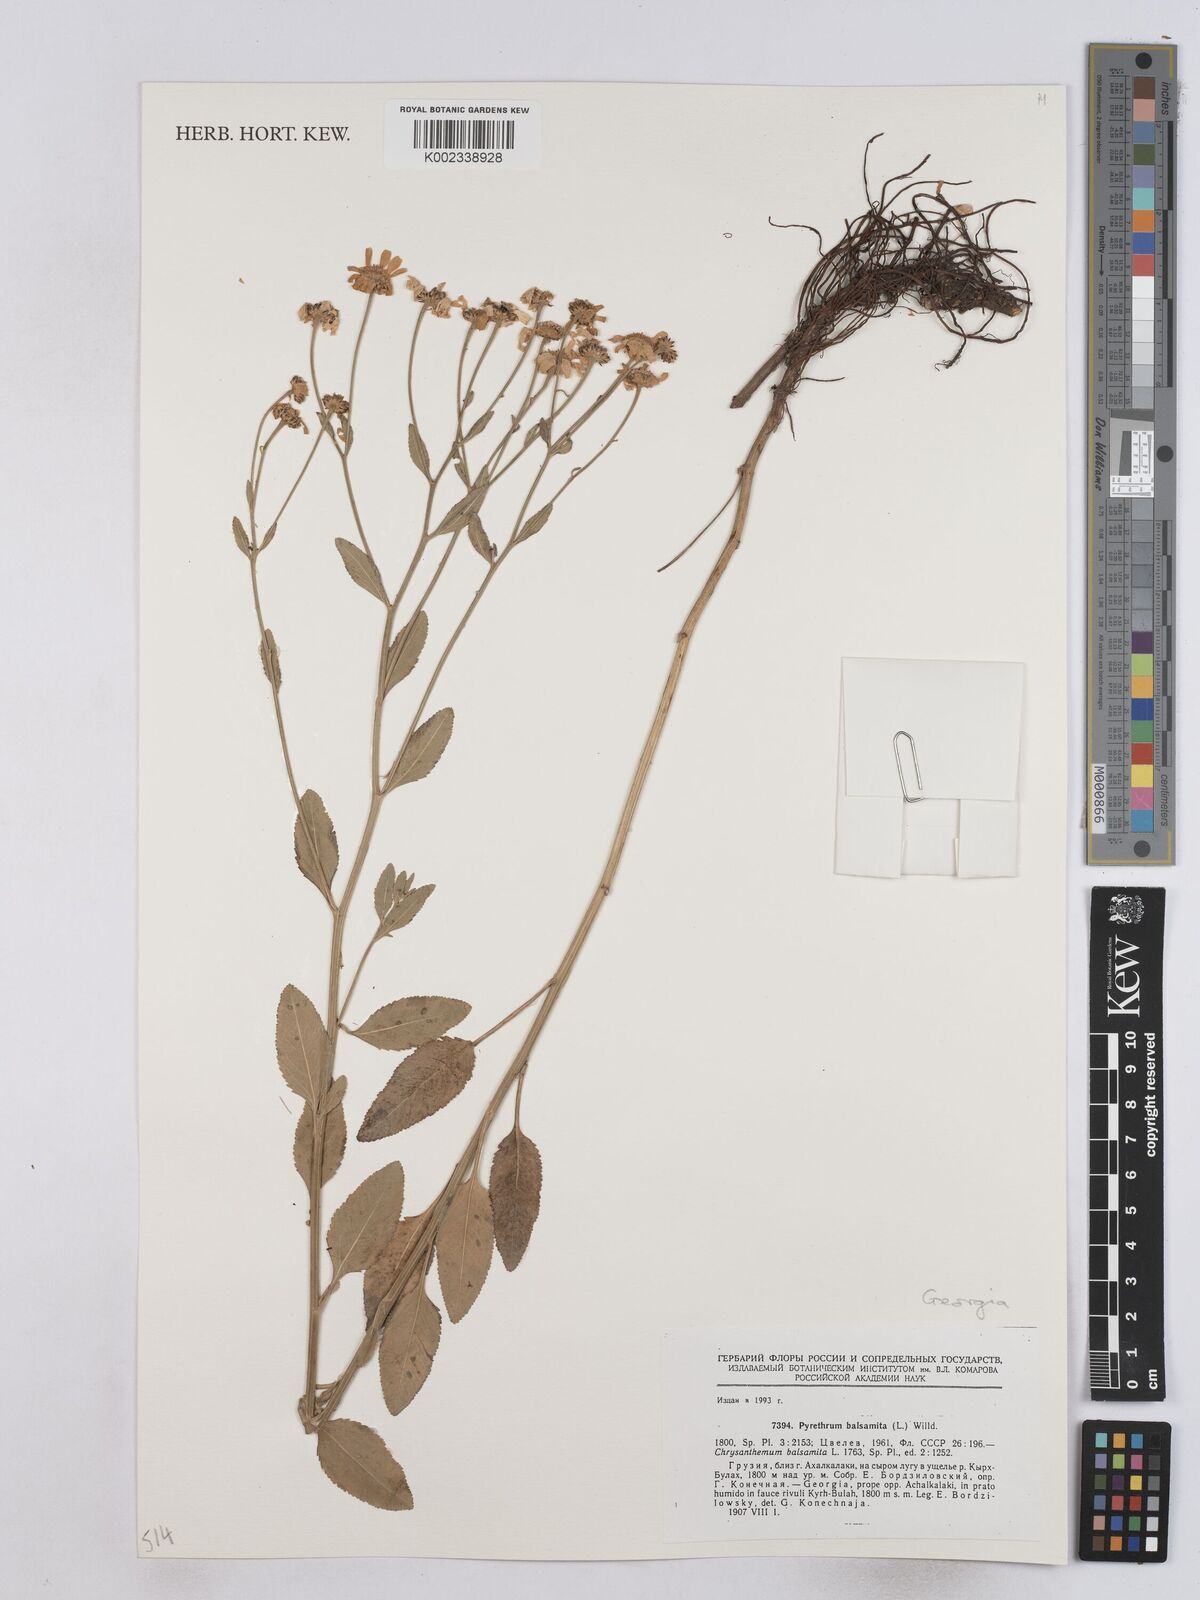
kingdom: Plantae
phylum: Tracheophyta
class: Magnoliopsida
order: Asterales
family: Asteraceae
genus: Tanacetum
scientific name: Tanacetum balsamita
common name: Costmary
